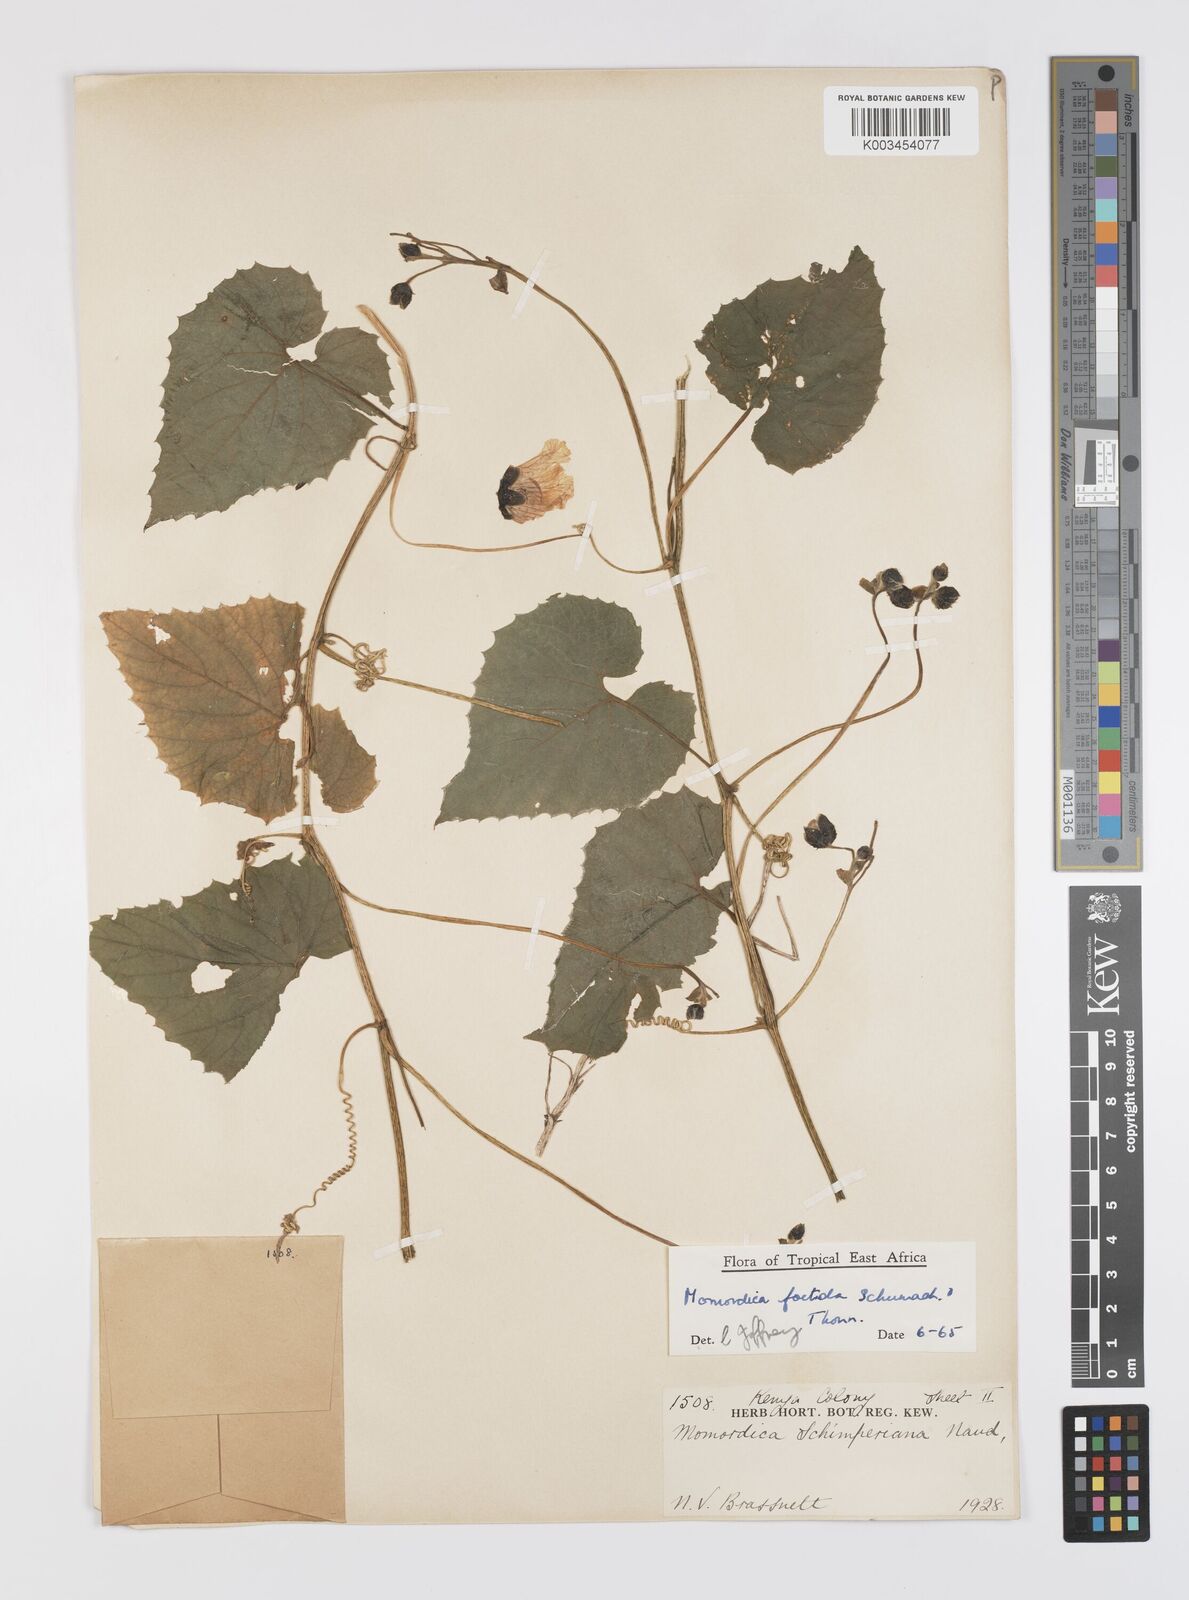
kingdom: Plantae
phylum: Tracheophyta
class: Magnoliopsida
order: Cucurbitales
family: Cucurbitaceae
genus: Momordica
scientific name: Momordica foetida
